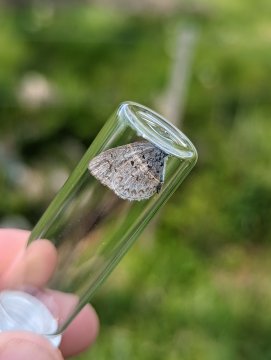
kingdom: Animalia
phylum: Arthropoda
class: Insecta
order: Lepidoptera
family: Lycaenidae
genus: Celastrina
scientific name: Celastrina lucia
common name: Northern Spring Azure
